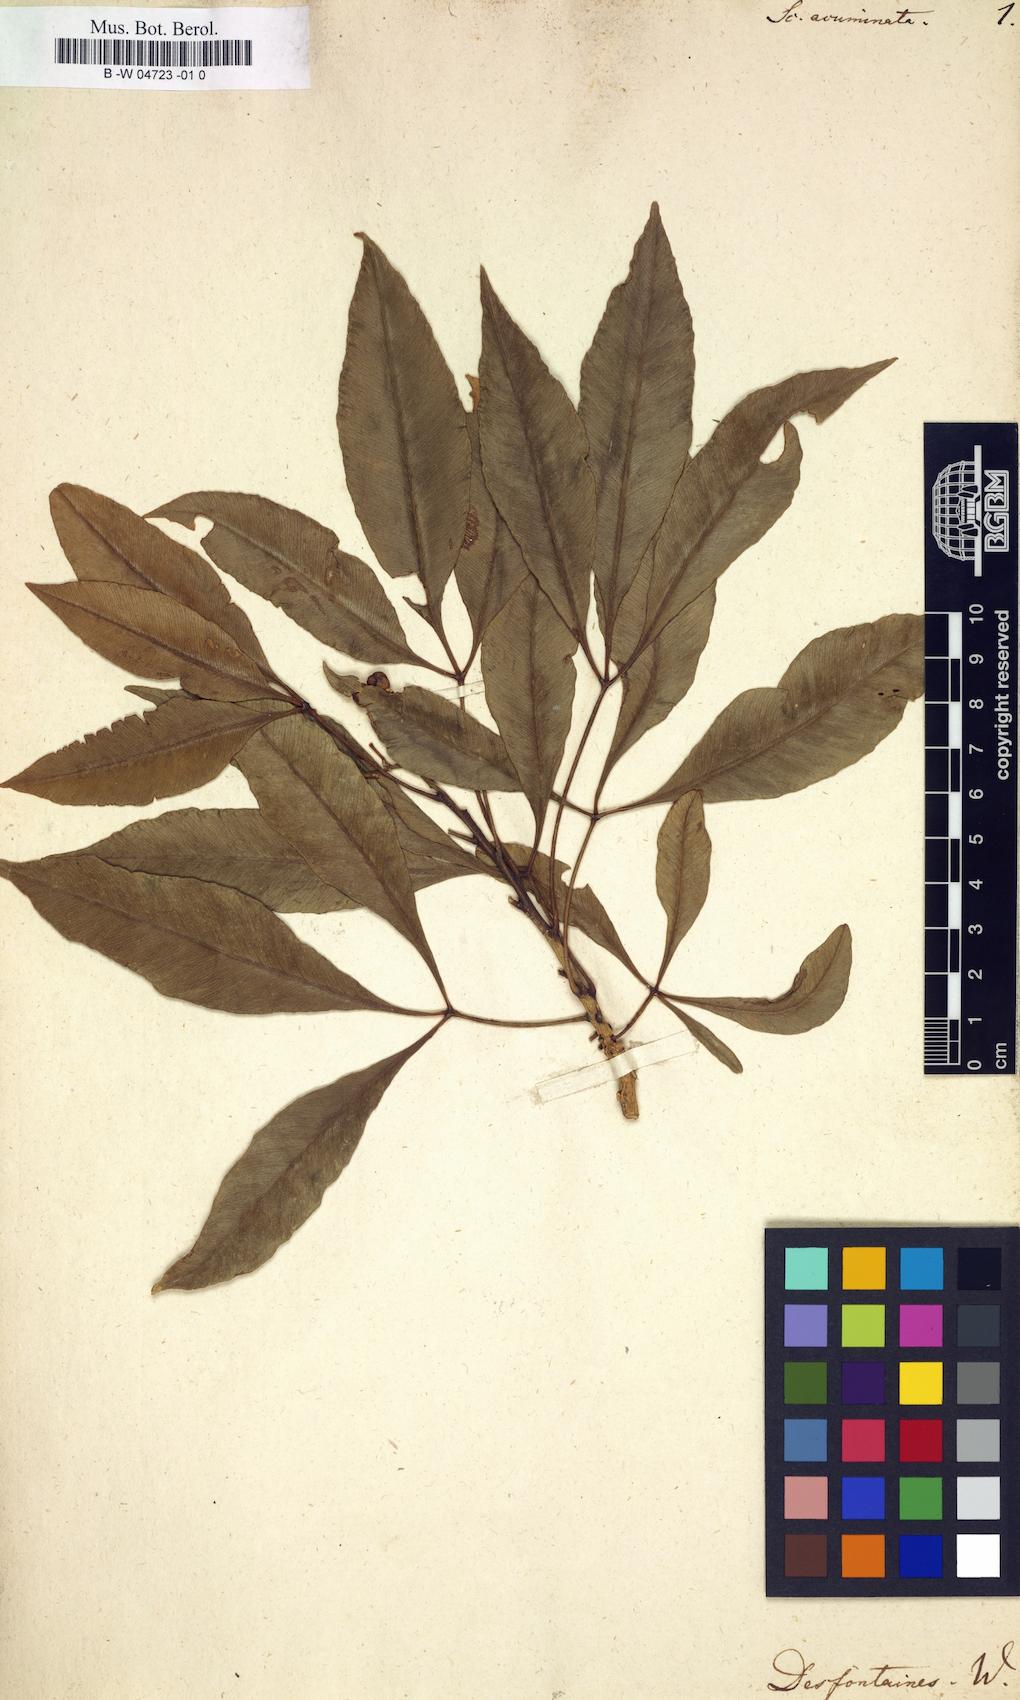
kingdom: Plantae
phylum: Tracheophyta
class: Magnoliopsida
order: Solanales
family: Solanaceae
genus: Scopolia
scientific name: Scopolia
